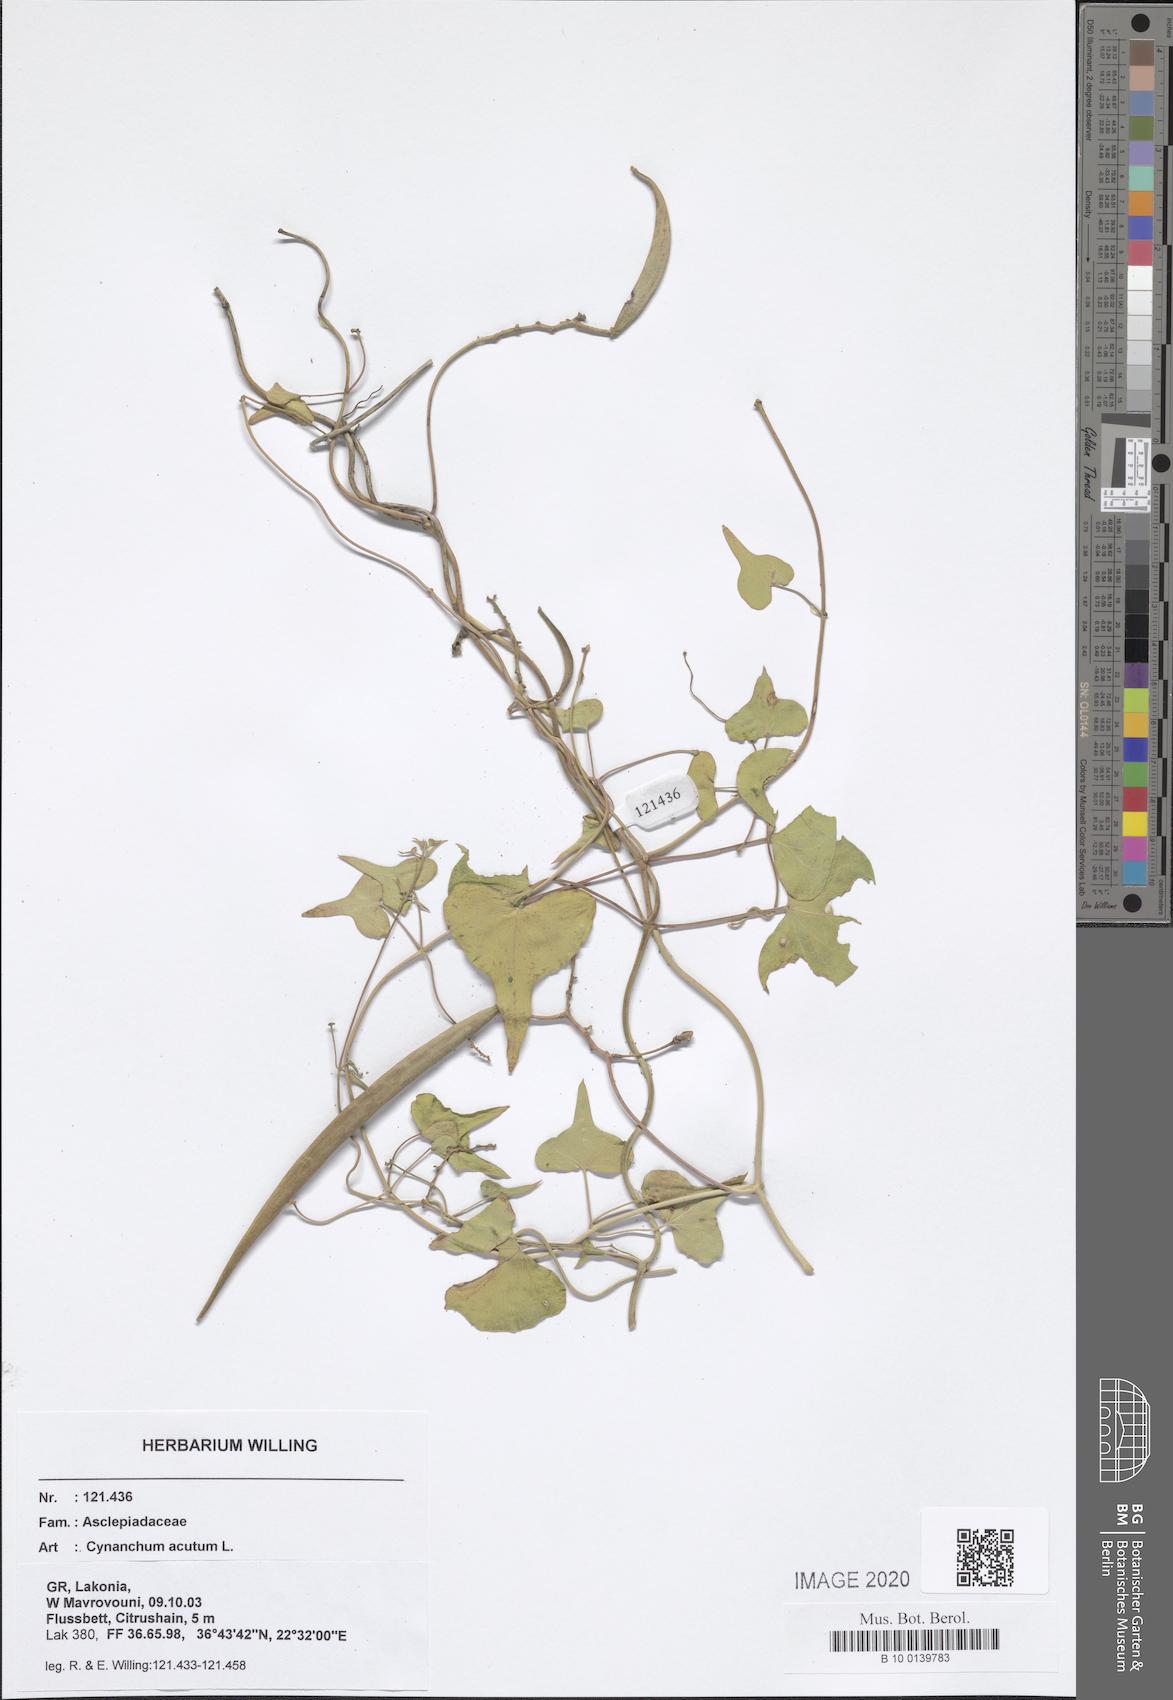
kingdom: Plantae
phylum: Tracheophyta
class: Magnoliopsida
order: Gentianales
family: Apocynaceae
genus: Cynanchum
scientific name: Cynanchum acutum
